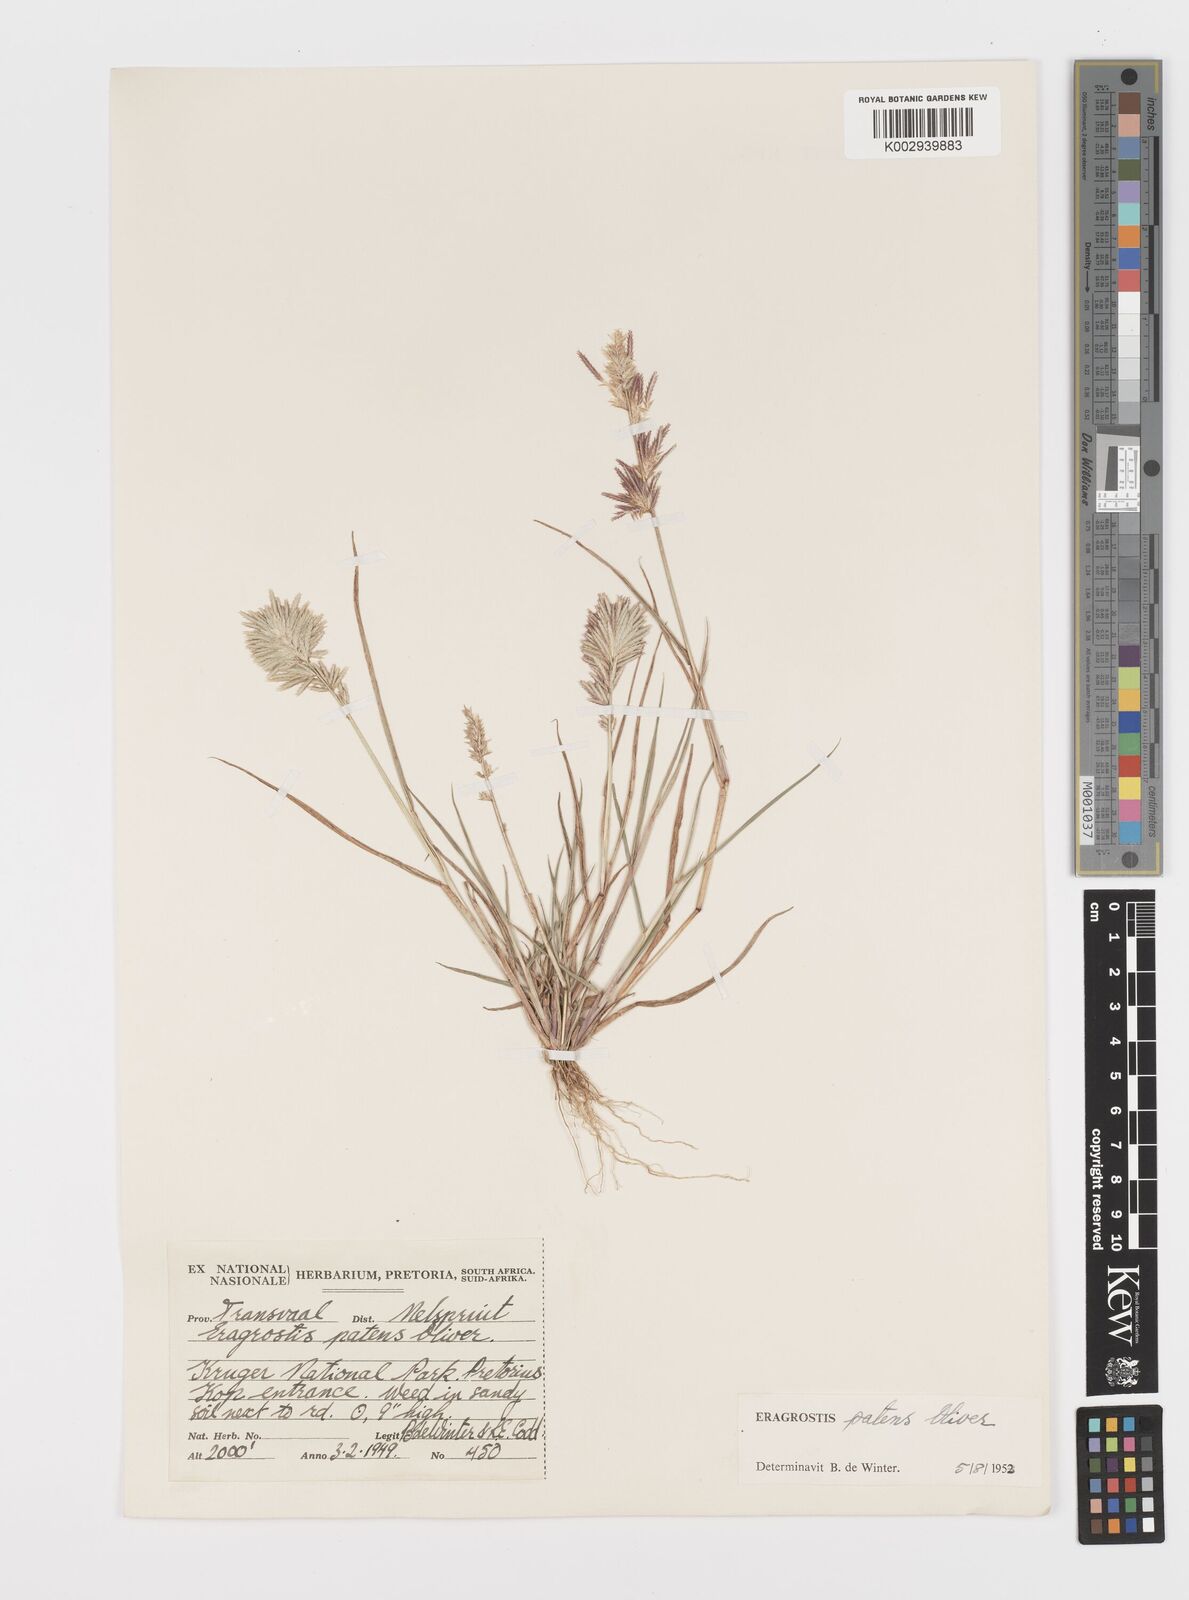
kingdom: Plantae
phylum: Tracheophyta
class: Liliopsida
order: Poales
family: Poaceae
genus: Eragrostis
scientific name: Eragrostis patens
